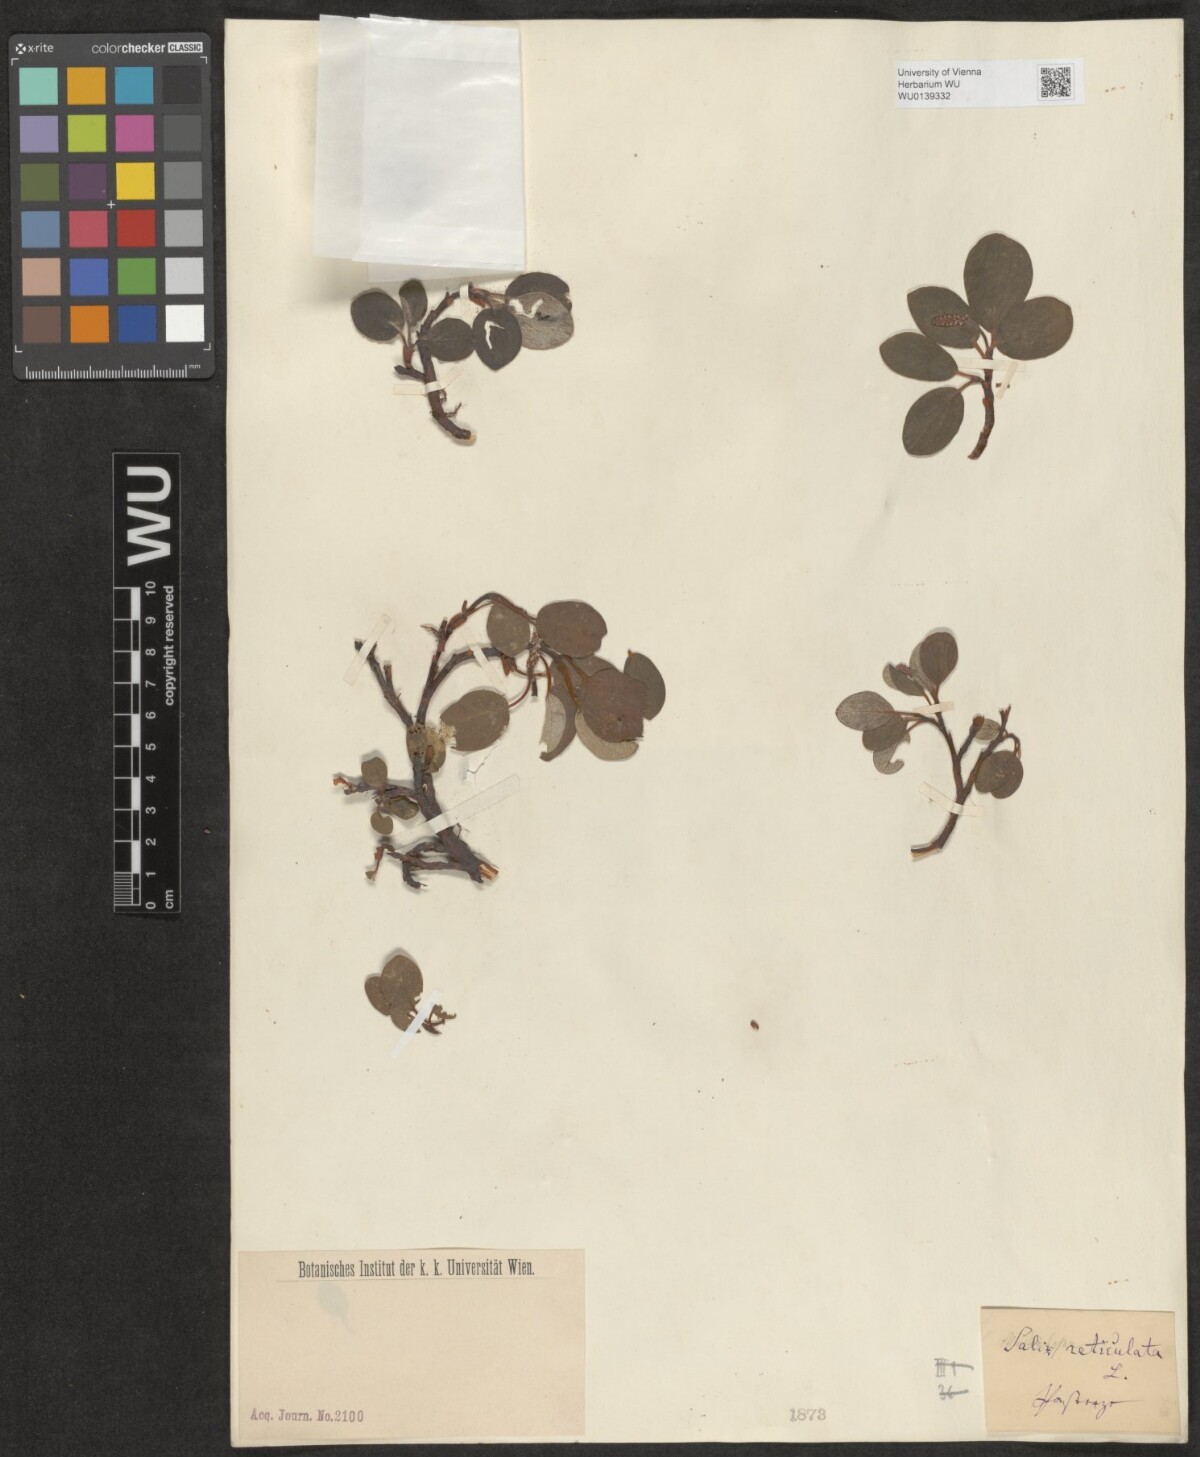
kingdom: Plantae
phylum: Tracheophyta
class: Magnoliopsida
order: Malpighiales
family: Salicaceae
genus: Salix
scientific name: Salix reticulata
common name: Net-leaved willow
